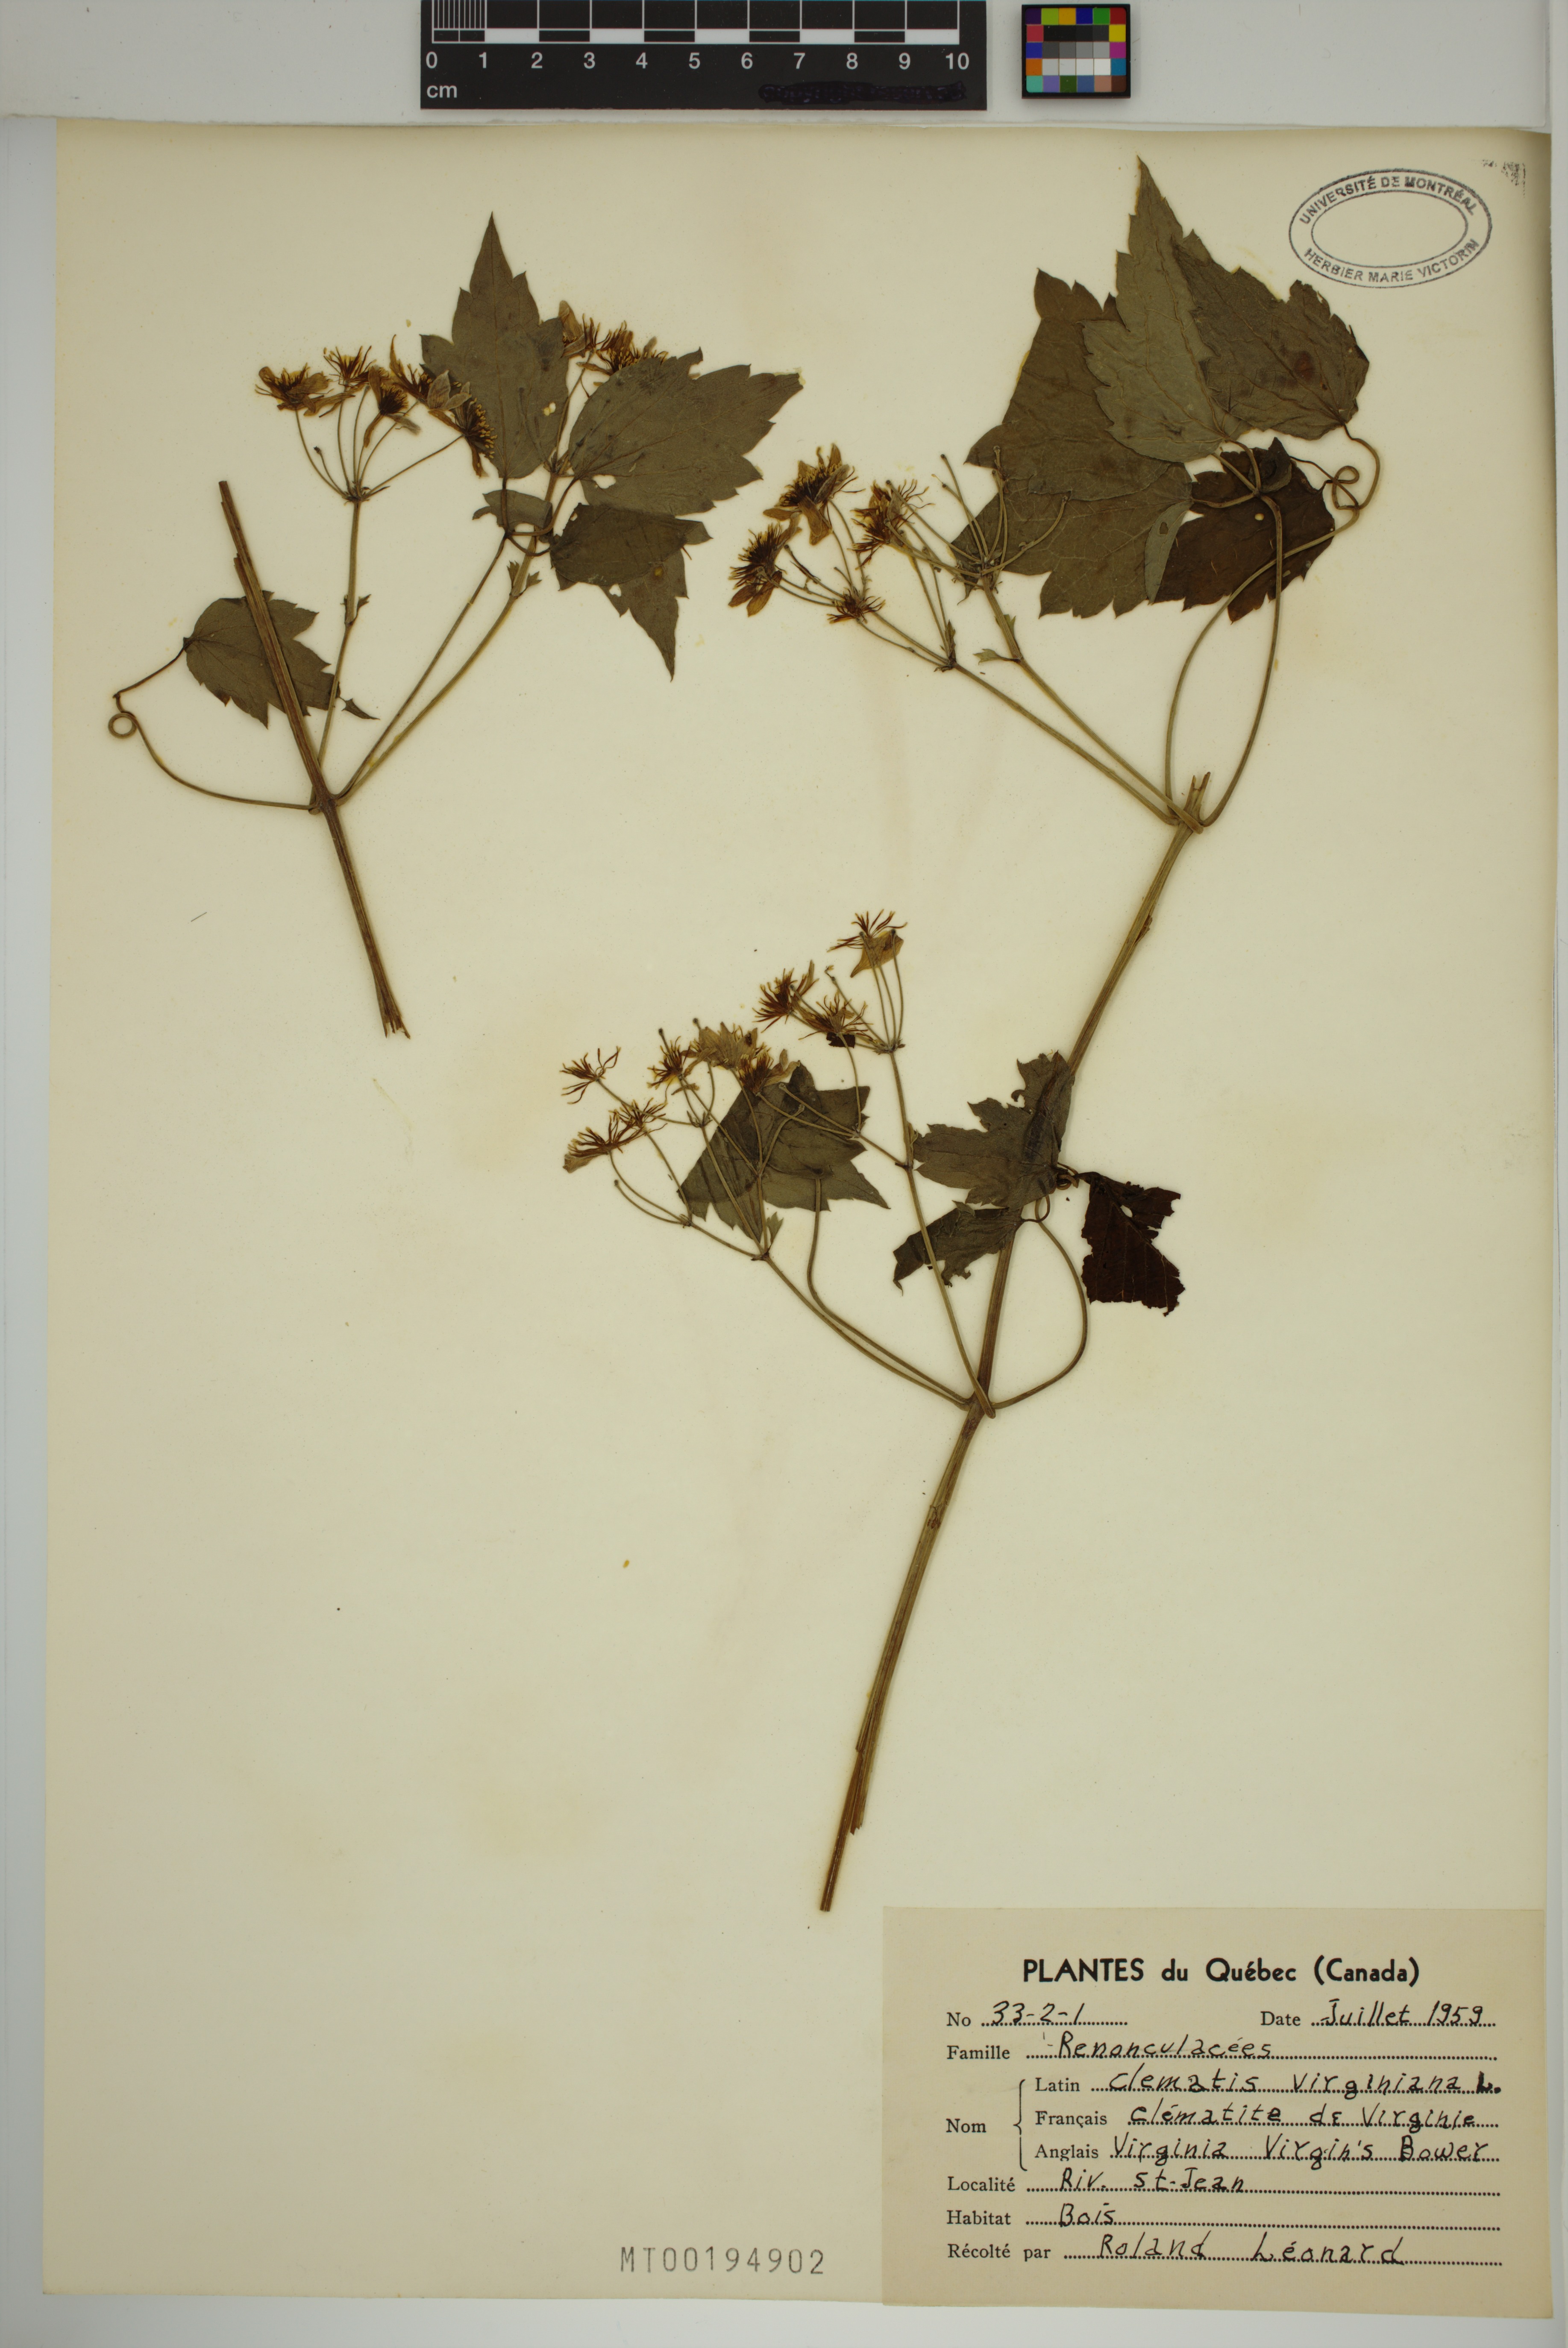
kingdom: Plantae
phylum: Tracheophyta
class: Magnoliopsida
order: Ranunculales
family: Ranunculaceae
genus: Clematis
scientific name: Clematis virginiana
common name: Virgin's-bower
